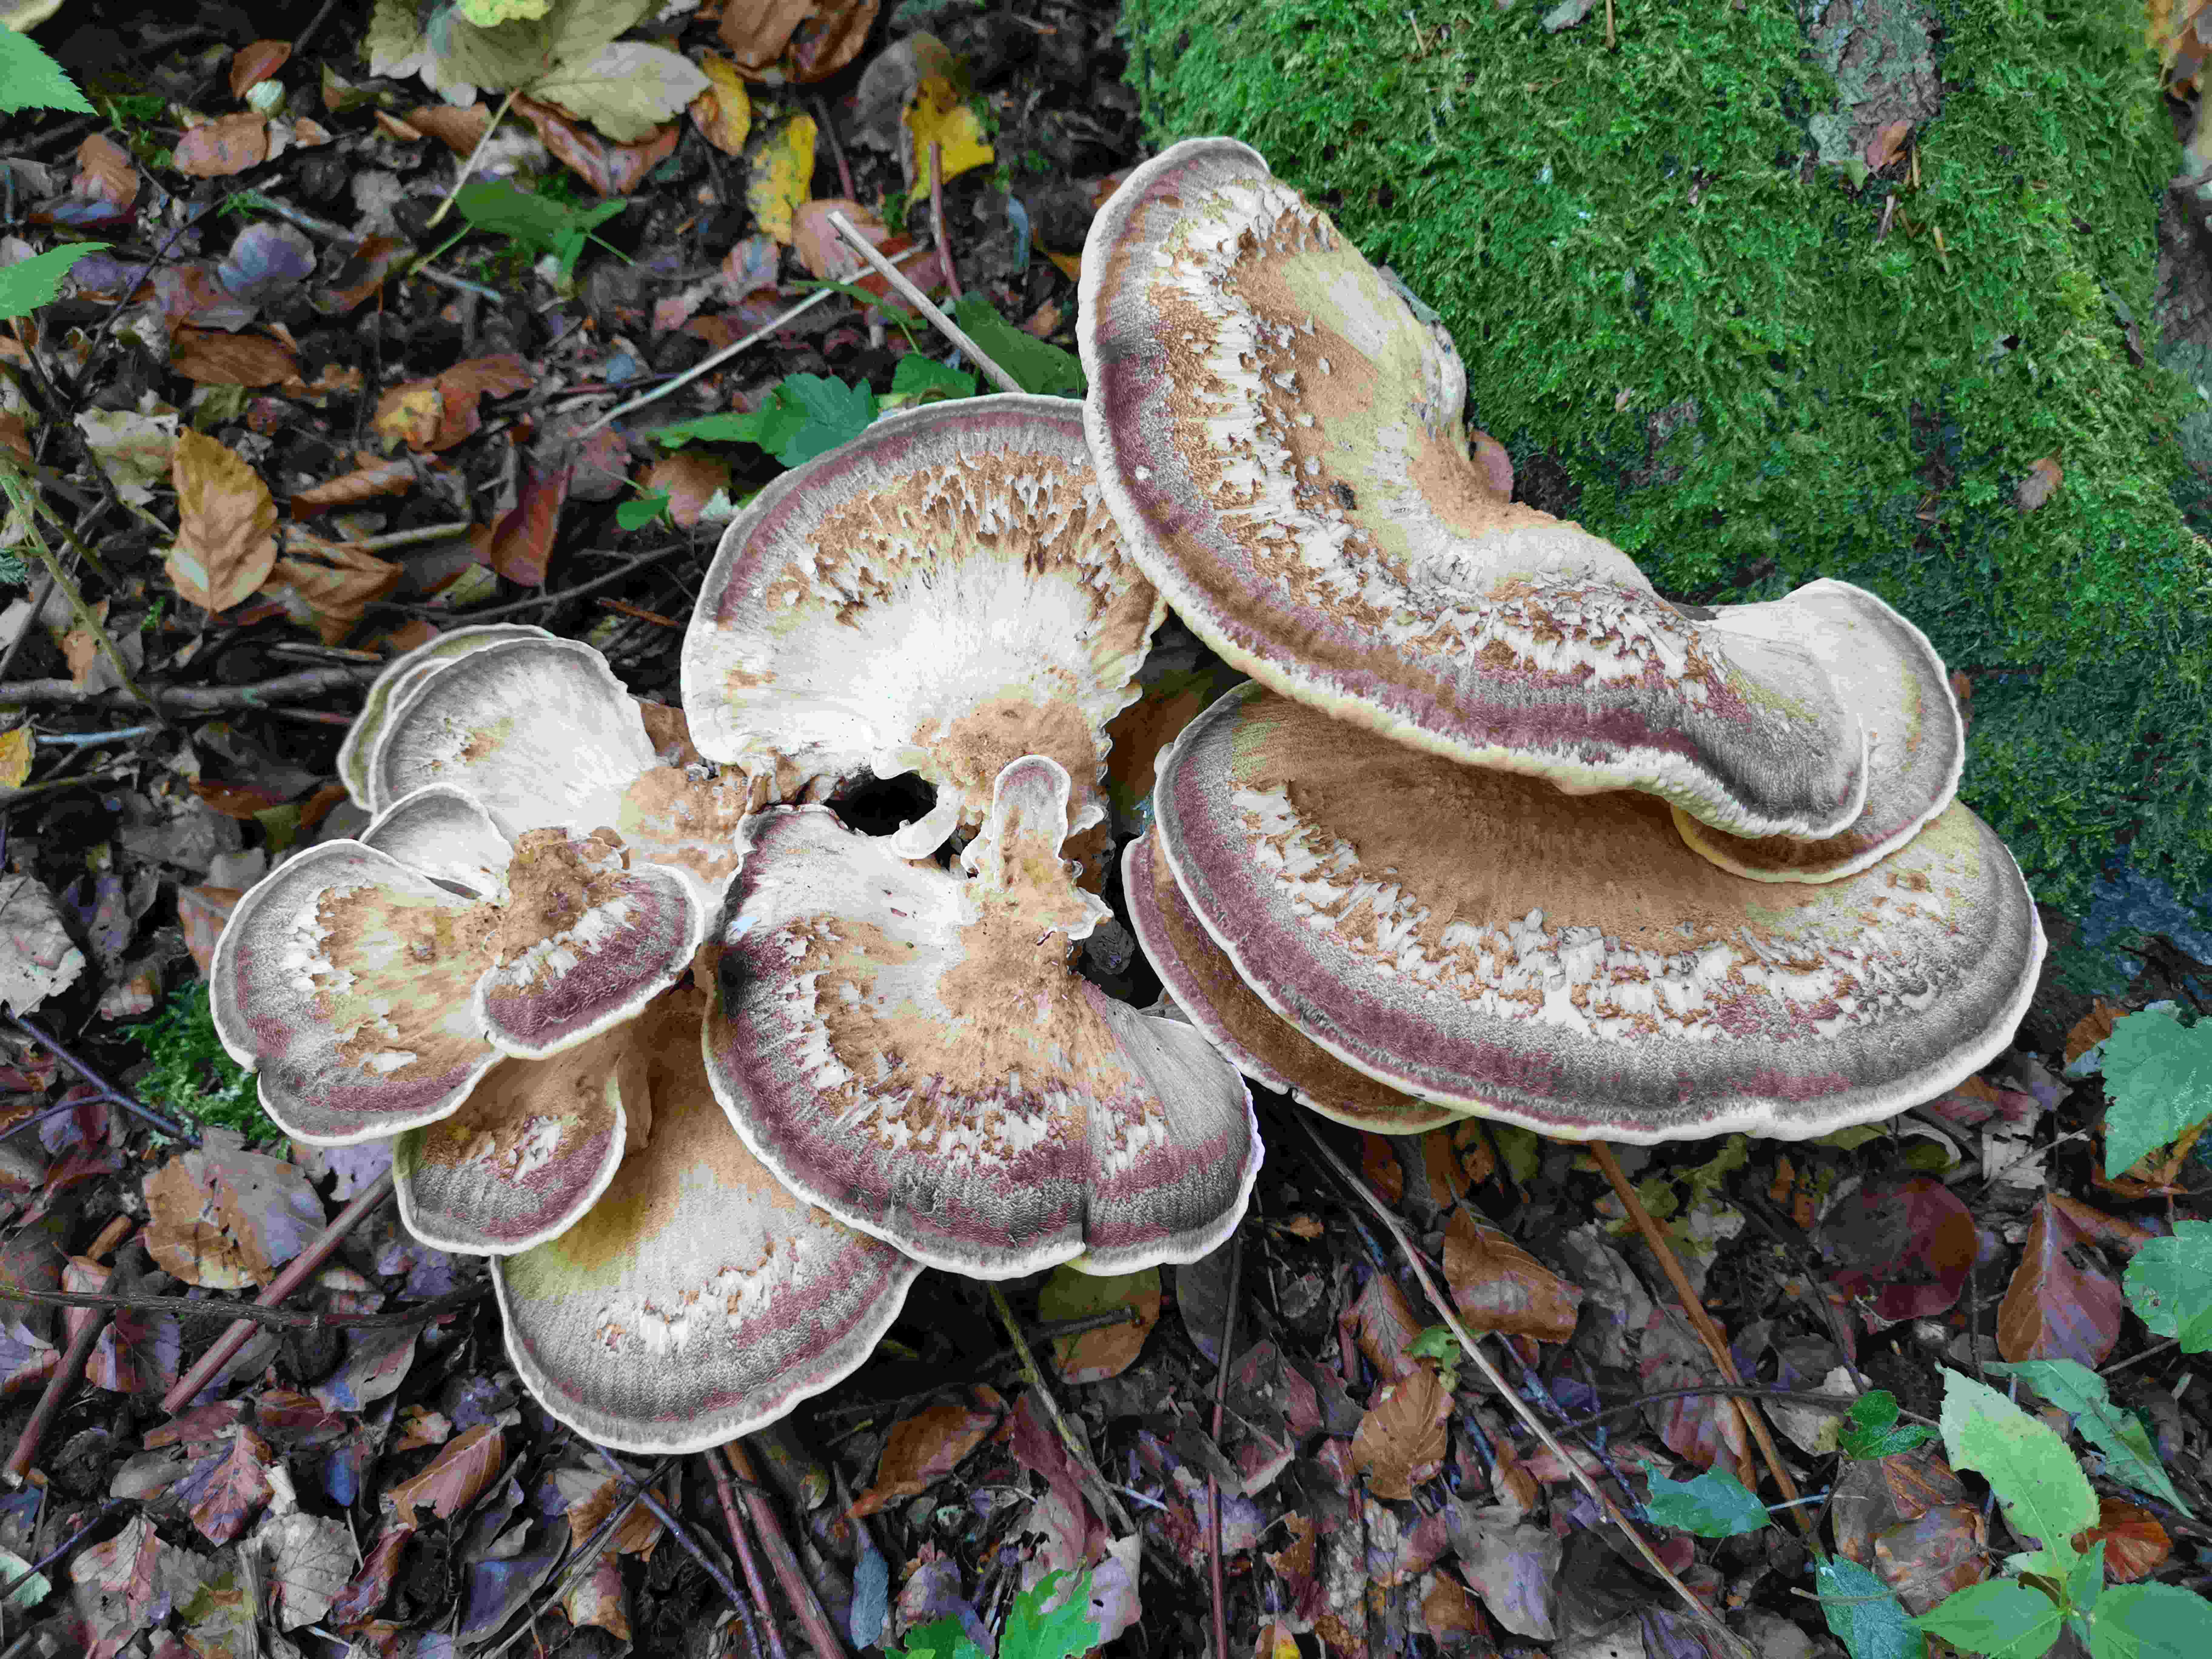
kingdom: Fungi
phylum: Basidiomycota
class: Agaricomycetes
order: Polyporales
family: Meripilaceae
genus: Meripilus
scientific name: Meripilus giganteus
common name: kæmpeporesvamp
